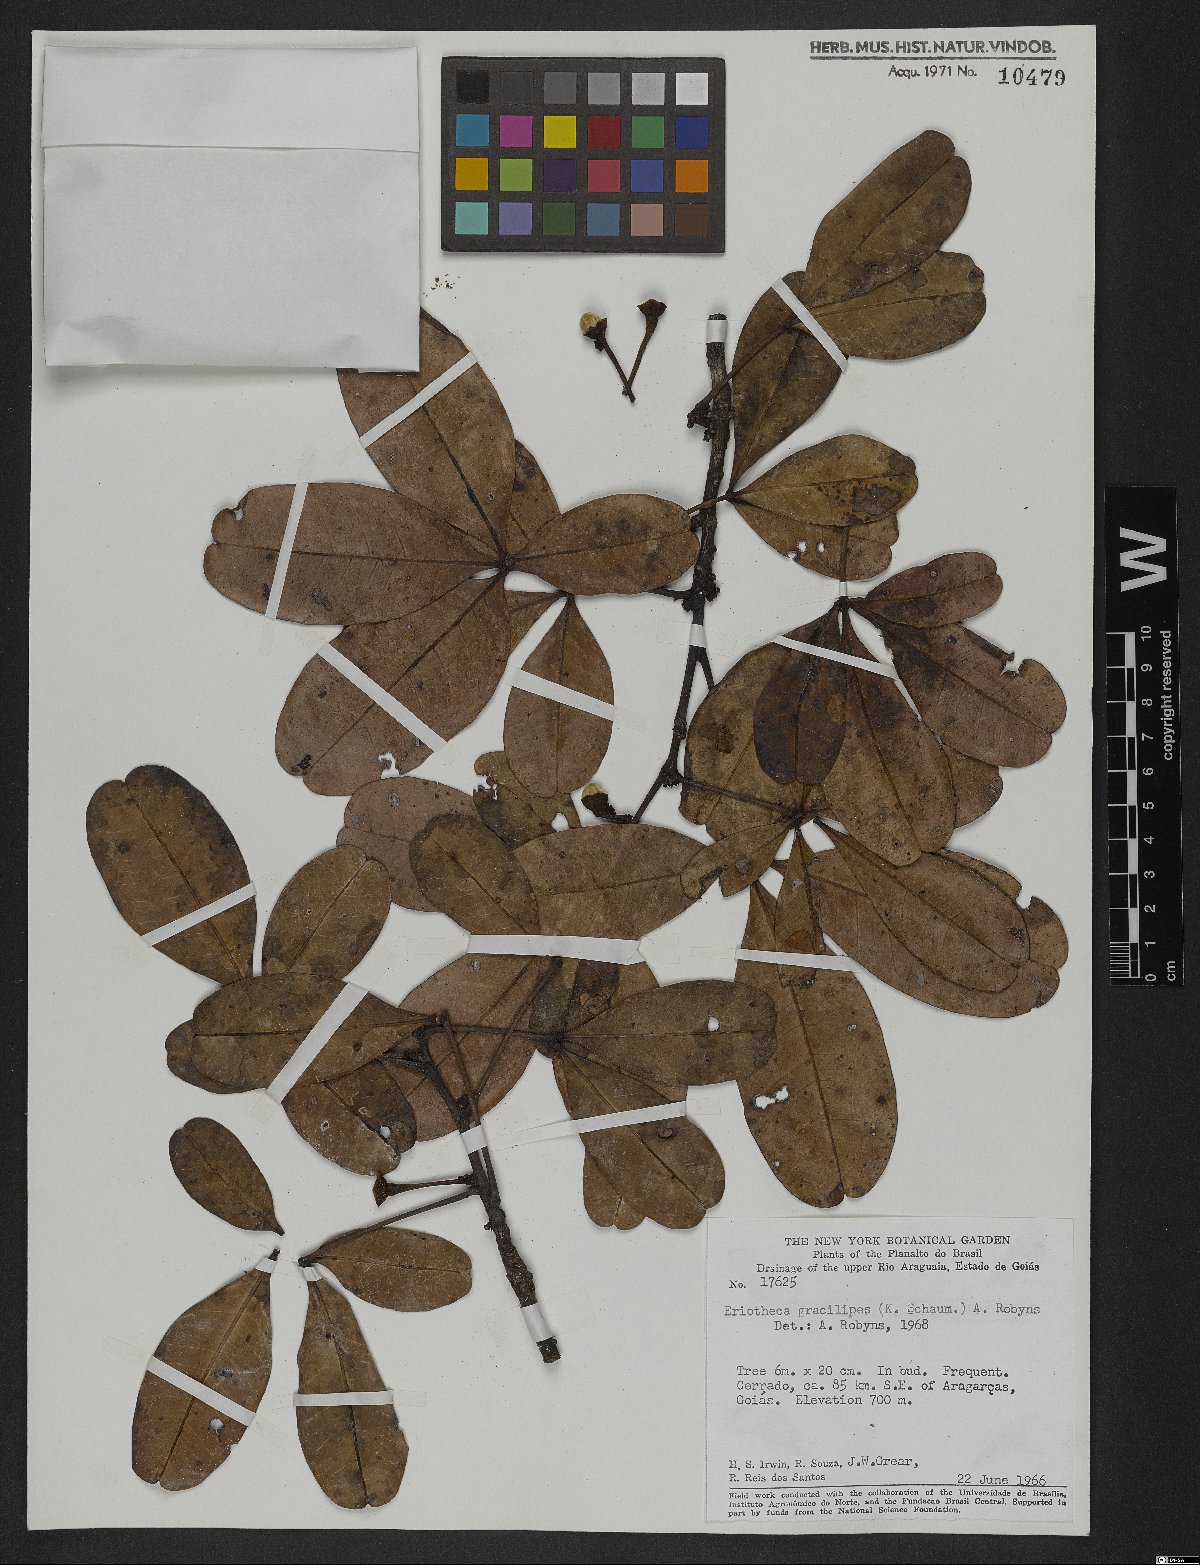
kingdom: Plantae
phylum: Tracheophyta
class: Magnoliopsida
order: Malvales
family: Malvaceae
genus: Eriotheca
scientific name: Eriotheca gracilipes
